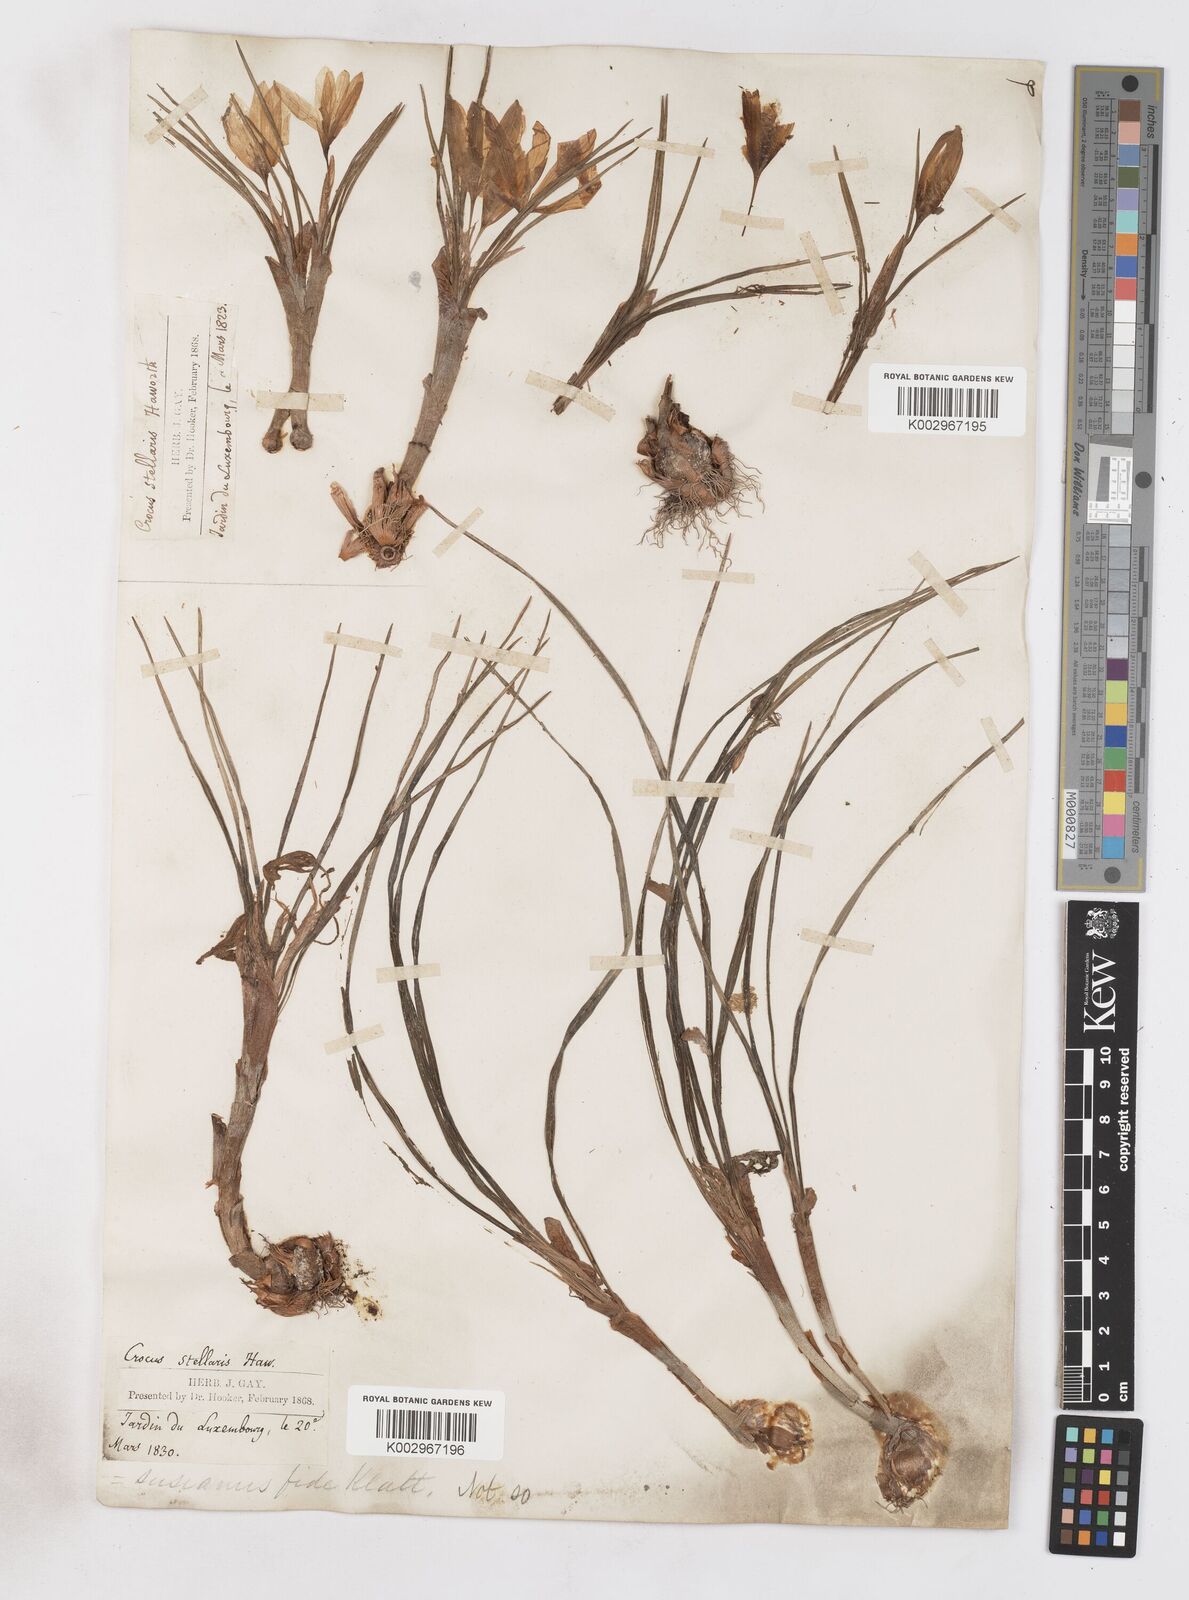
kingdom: Plantae
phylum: Tracheophyta
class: Liliopsida
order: Asparagales
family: Iridaceae
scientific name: Iridaceae
